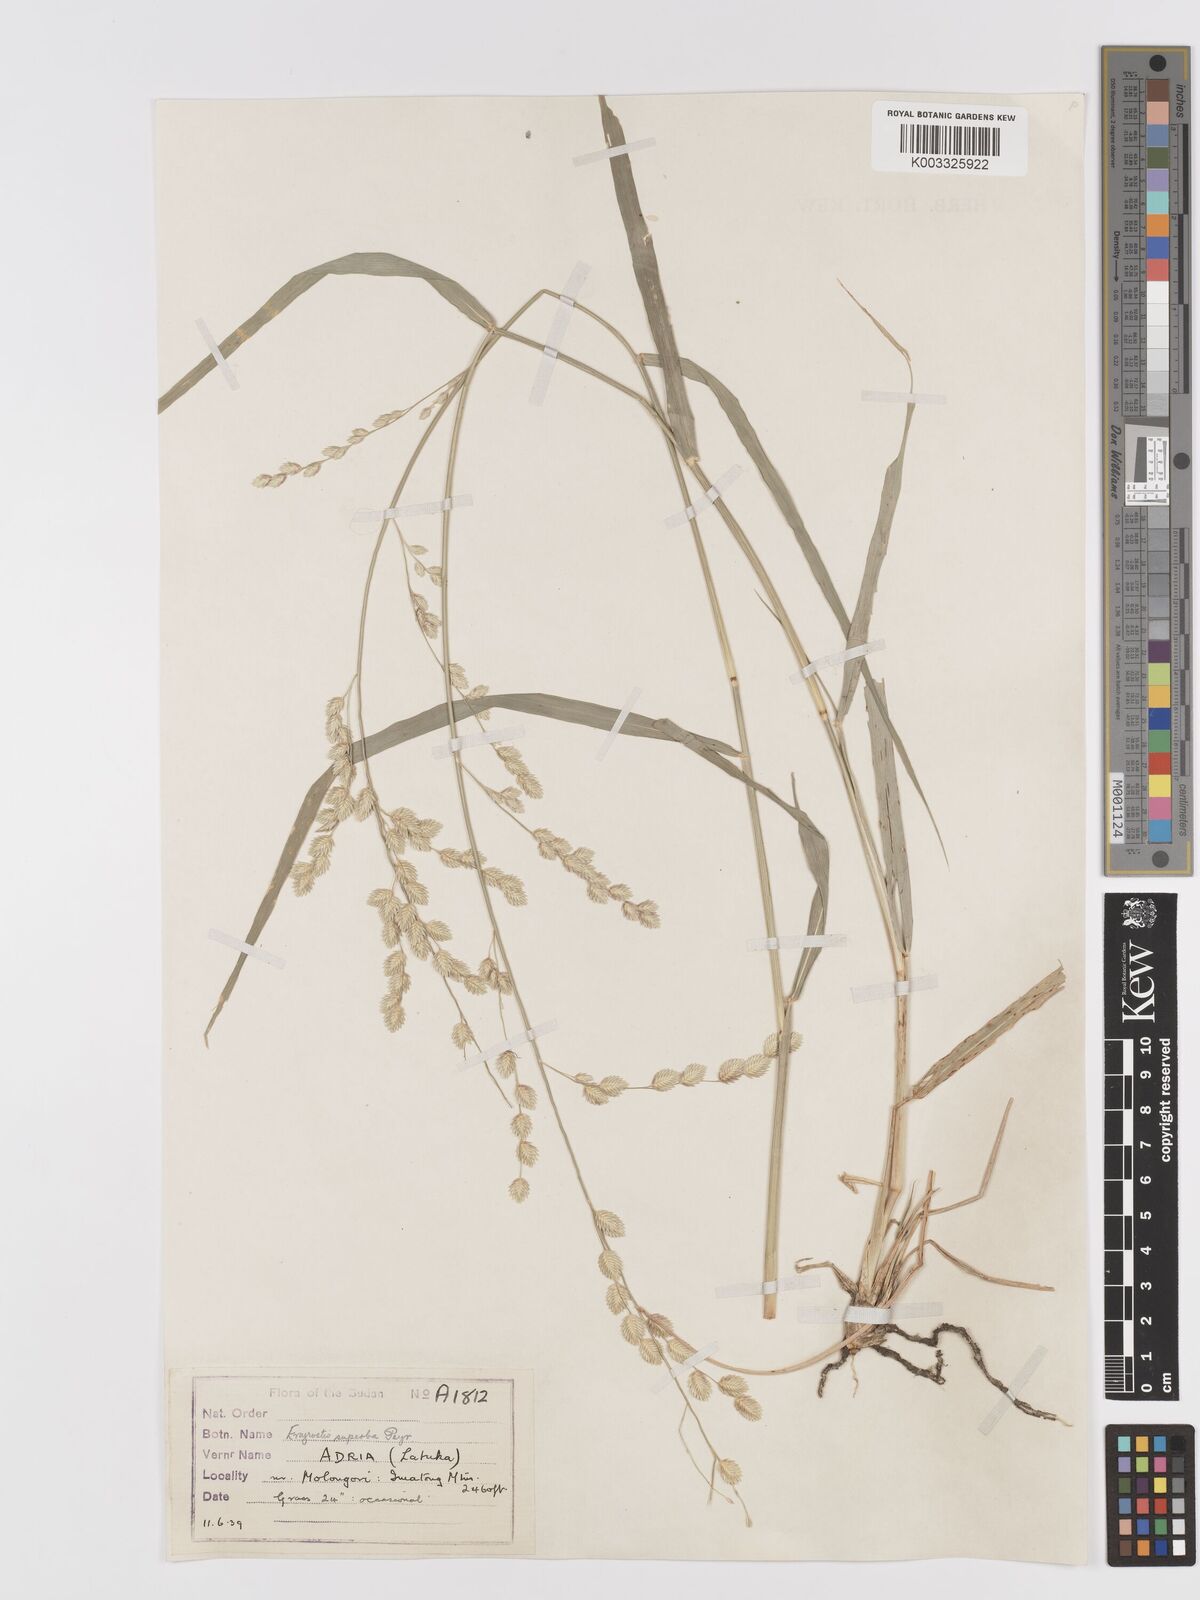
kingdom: Plantae
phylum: Tracheophyta
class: Liliopsida
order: Poales
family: Poaceae
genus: Eragrostis
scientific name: Eragrostis superba
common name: Wilman lovegrass
